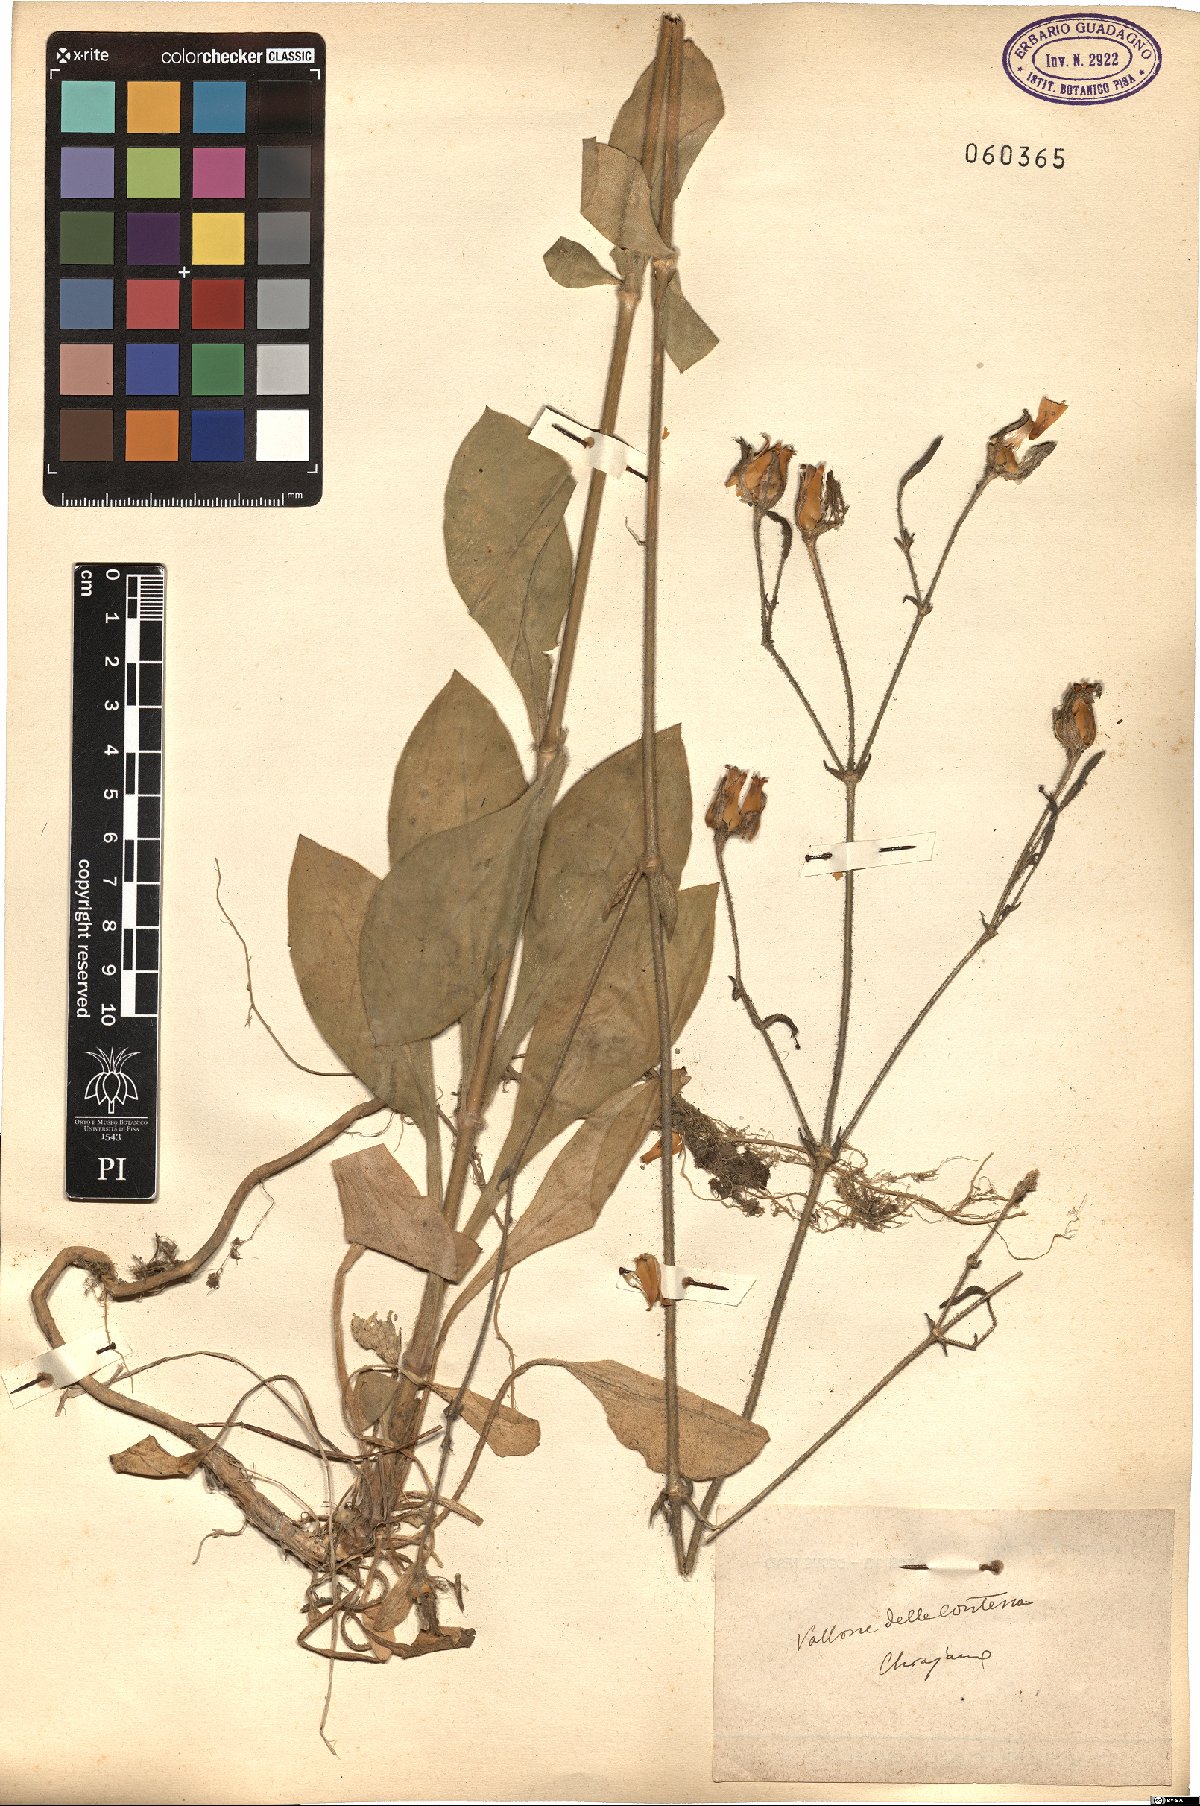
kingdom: Plantae
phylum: Tracheophyta
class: Magnoliopsida
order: Caryophyllales
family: Caryophyllaceae
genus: Silene
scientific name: Silene
